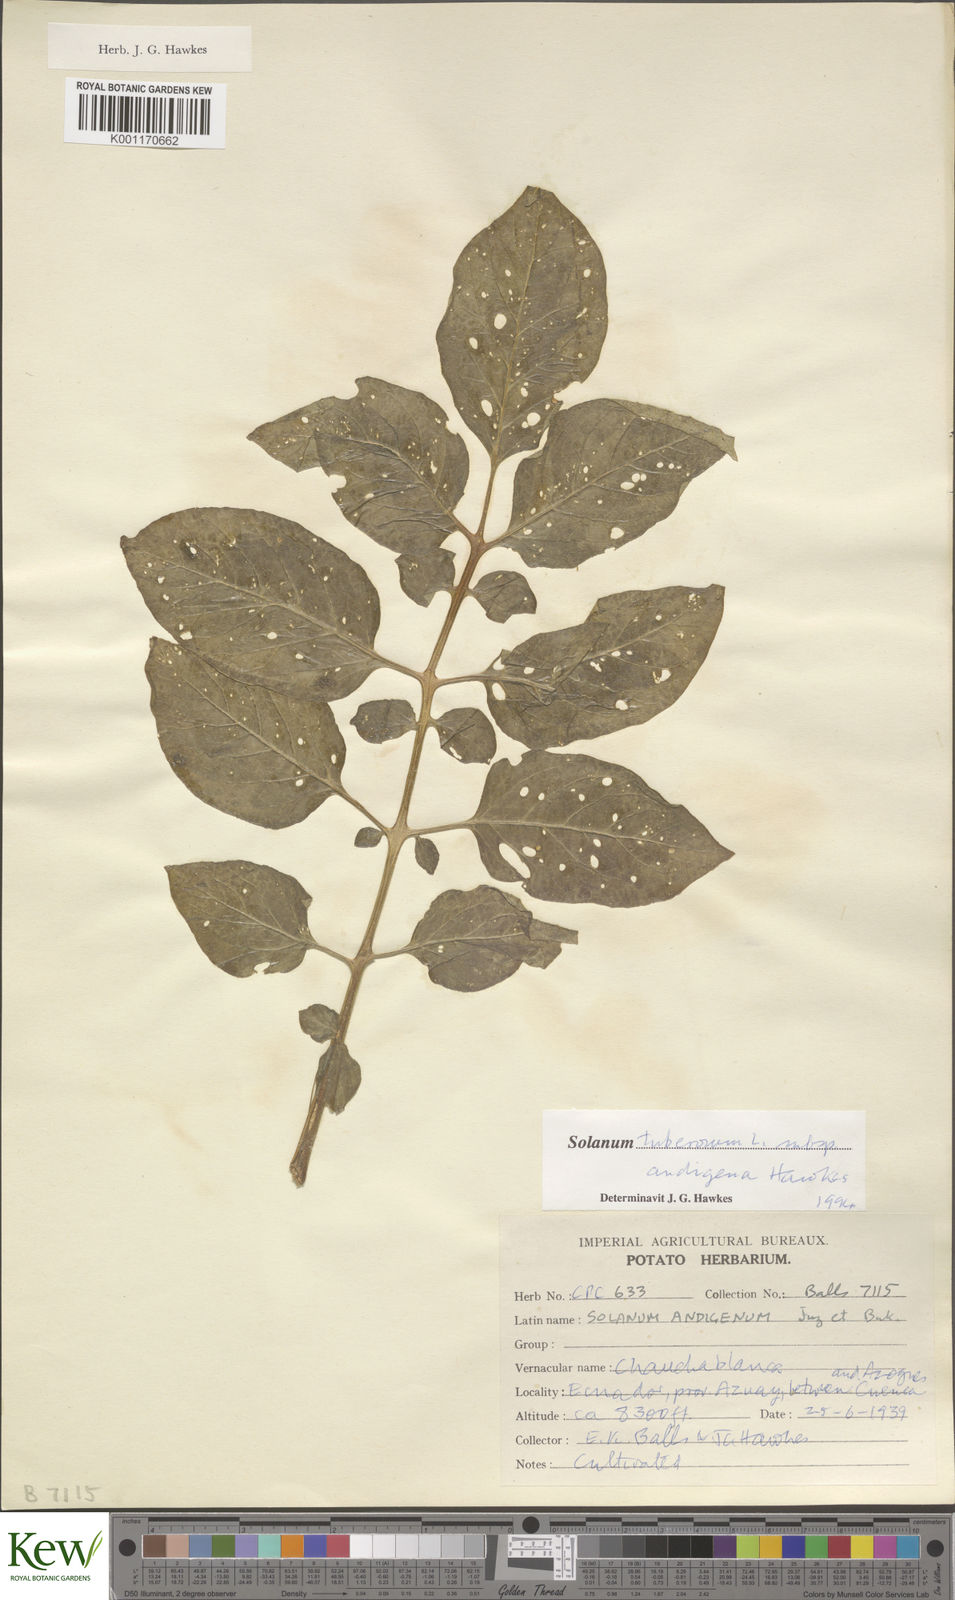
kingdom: Plantae
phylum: Tracheophyta
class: Magnoliopsida
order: Solanales
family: Solanaceae
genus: Solanum
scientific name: Solanum tuberosum
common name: Potato
